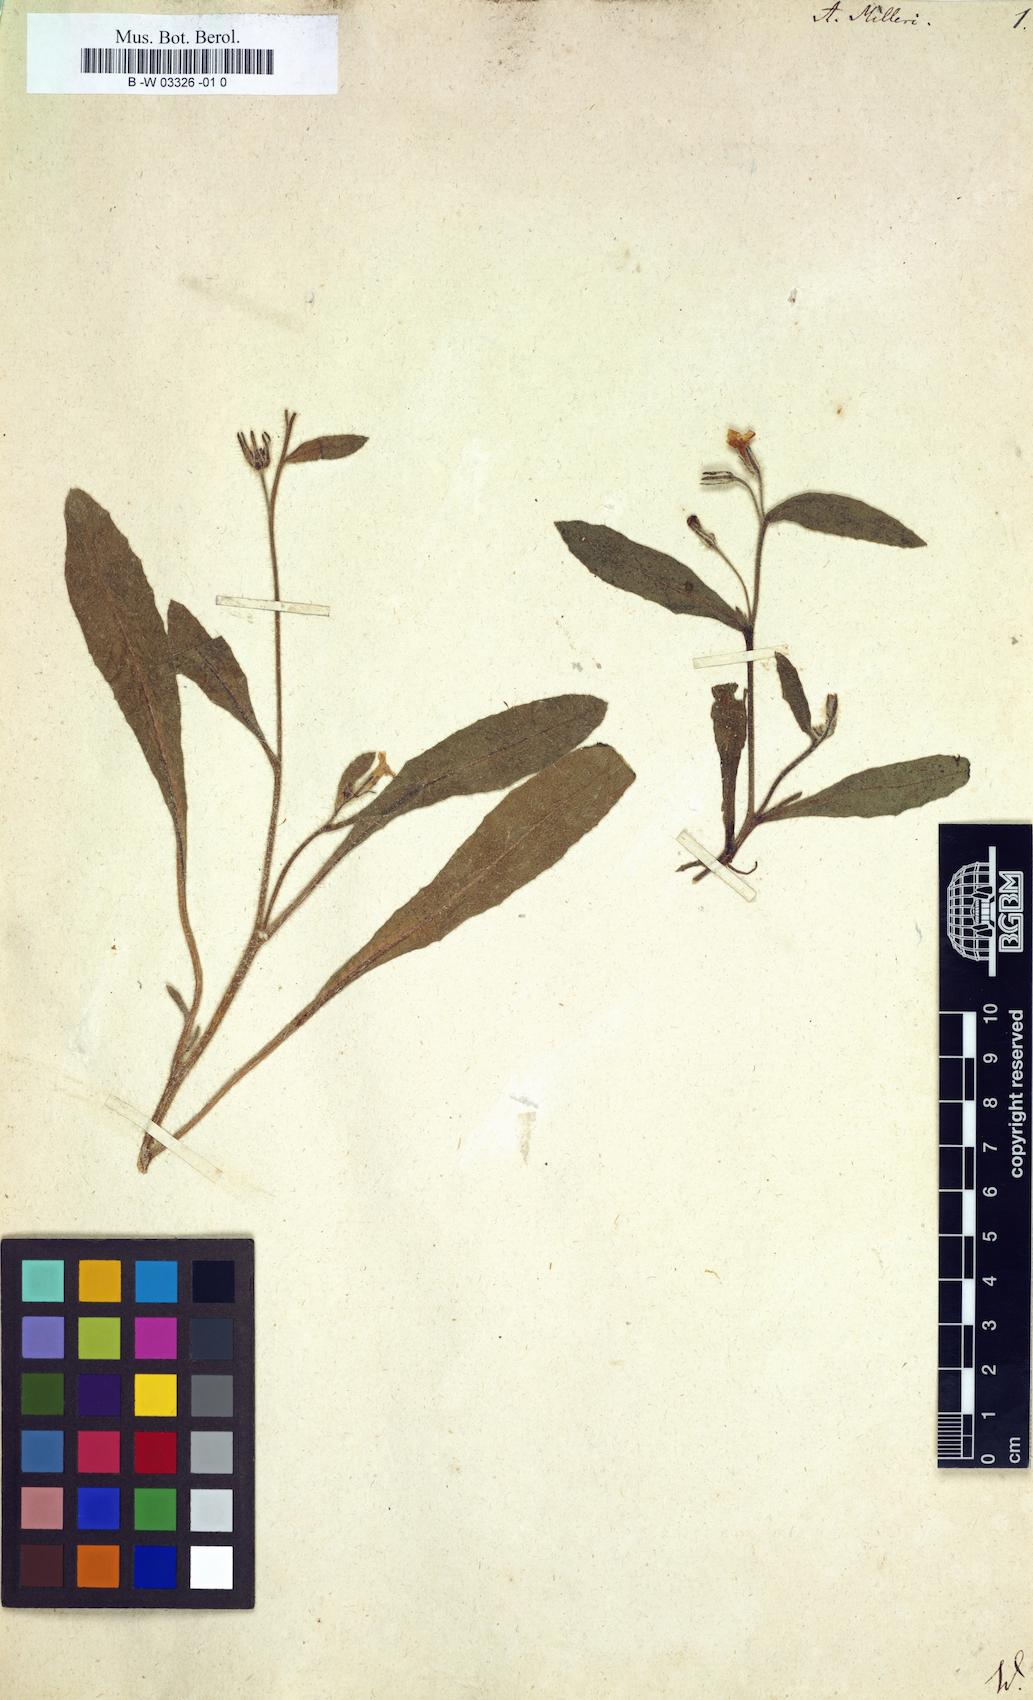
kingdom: Plantae
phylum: Tracheophyta
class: Magnoliopsida
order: Boraginales
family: Boraginaceae
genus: Anchusa
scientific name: Anchusa milleri
